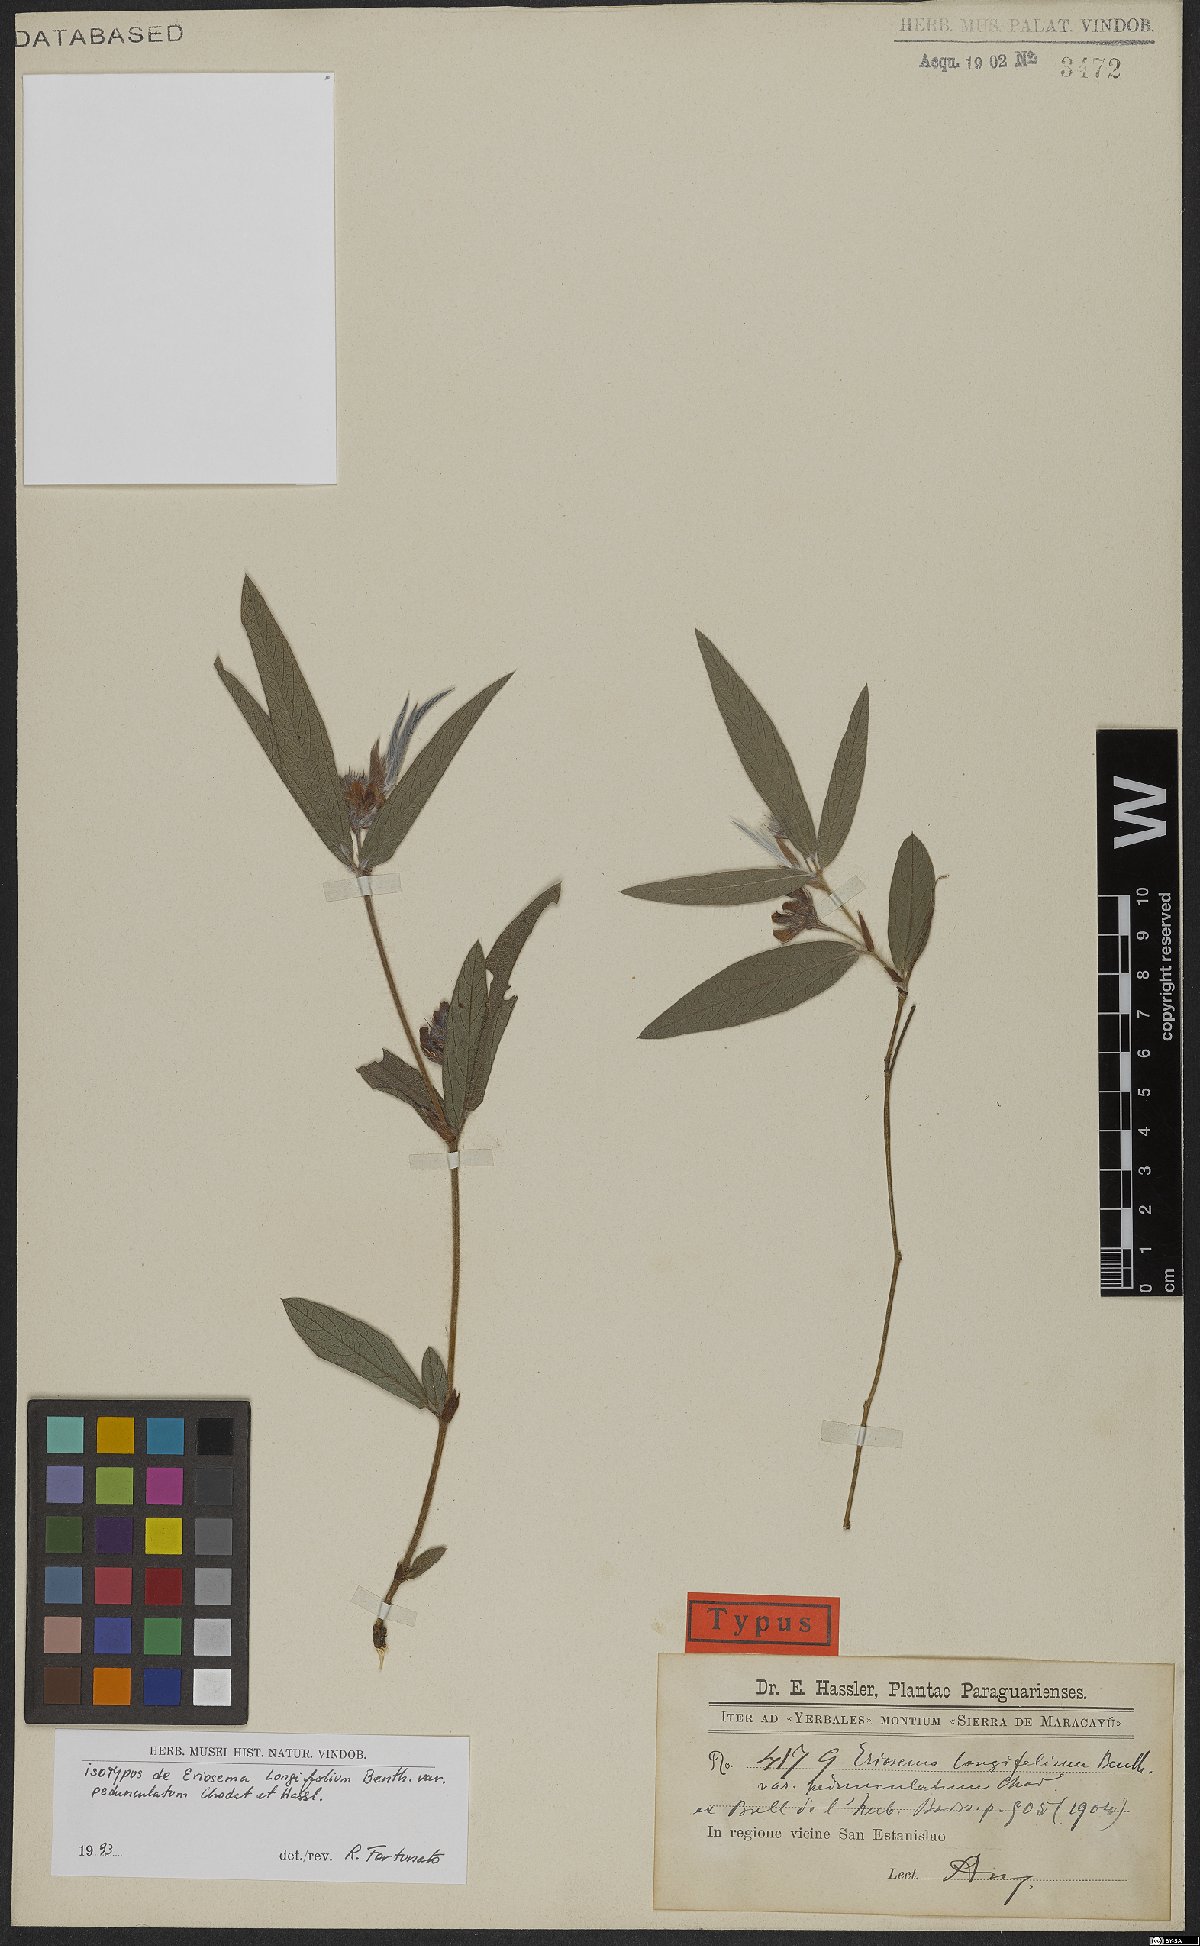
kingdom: Plantae
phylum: Tracheophyta
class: Magnoliopsida
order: Fabales
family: Fabaceae
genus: Eriosema
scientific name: Eriosema tacuaremboense
